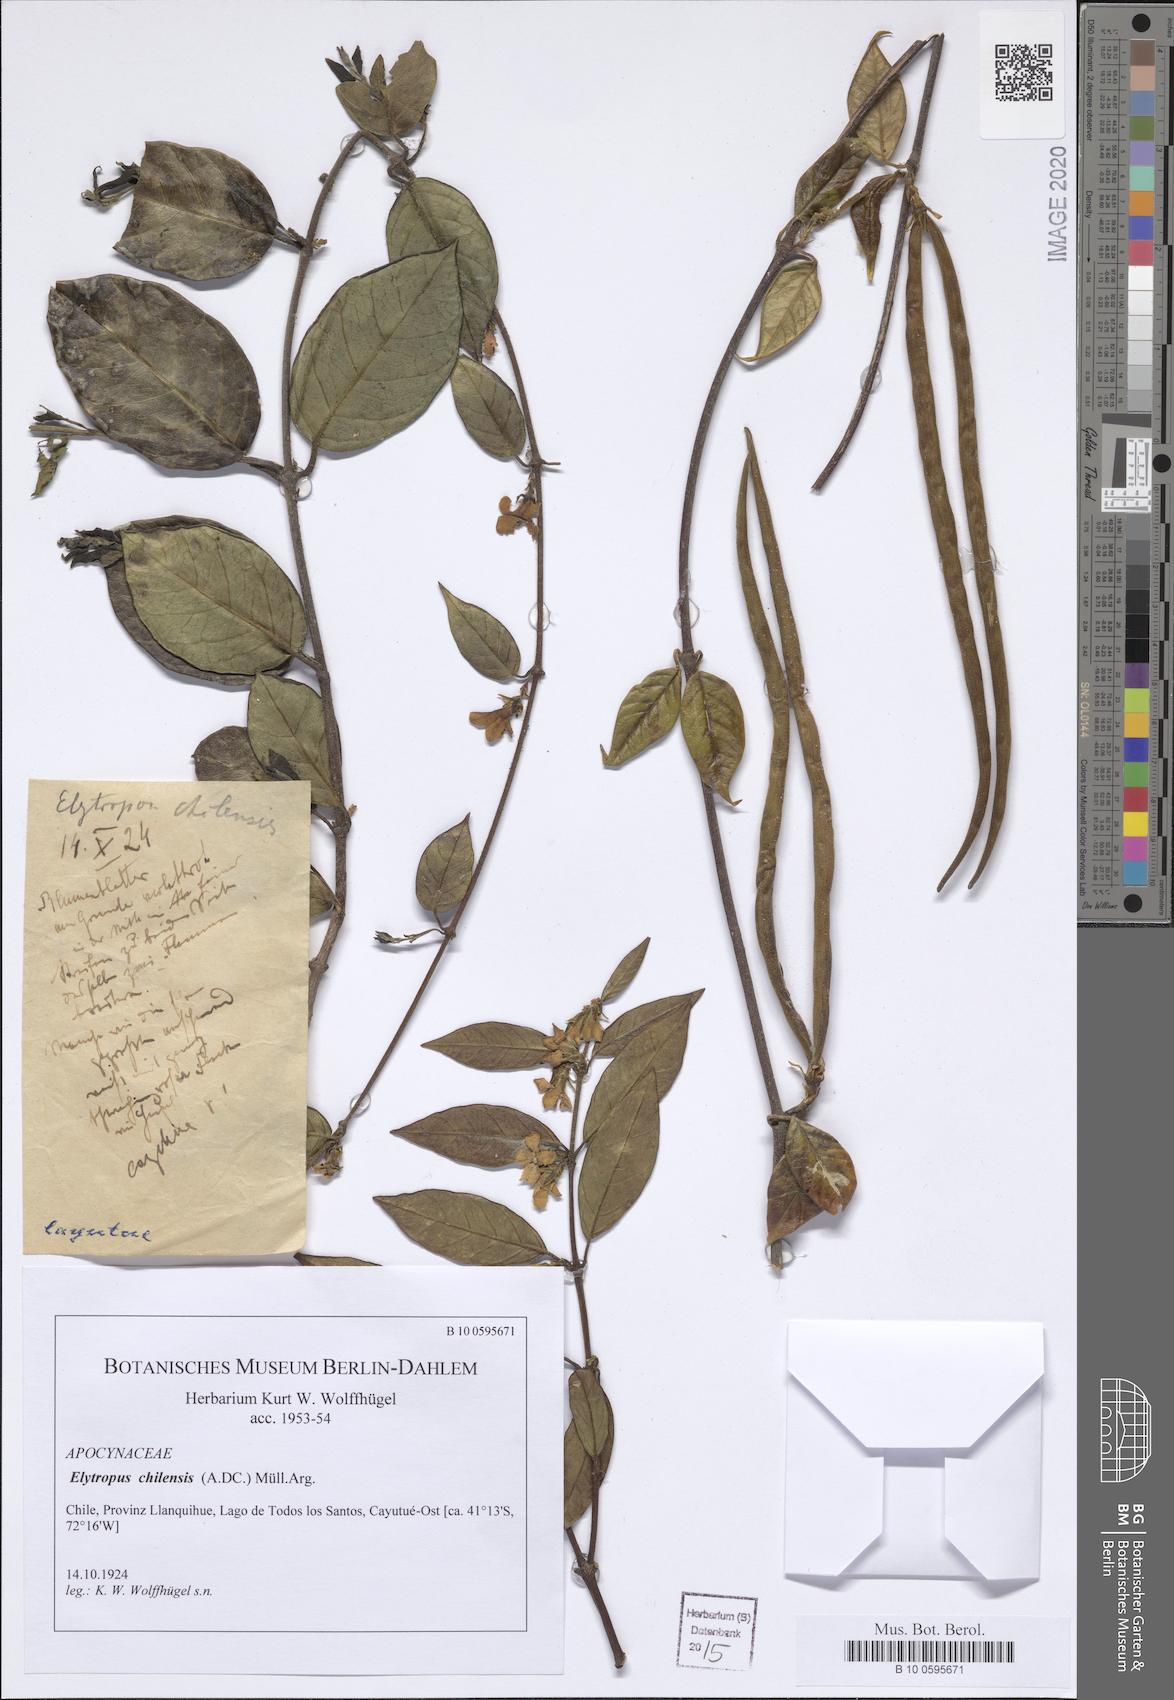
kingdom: Plantae
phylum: Tracheophyta
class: Magnoliopsida
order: Gentianales
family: Apocynaceae
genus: Mandevilla
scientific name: Mandevilla pubescens
